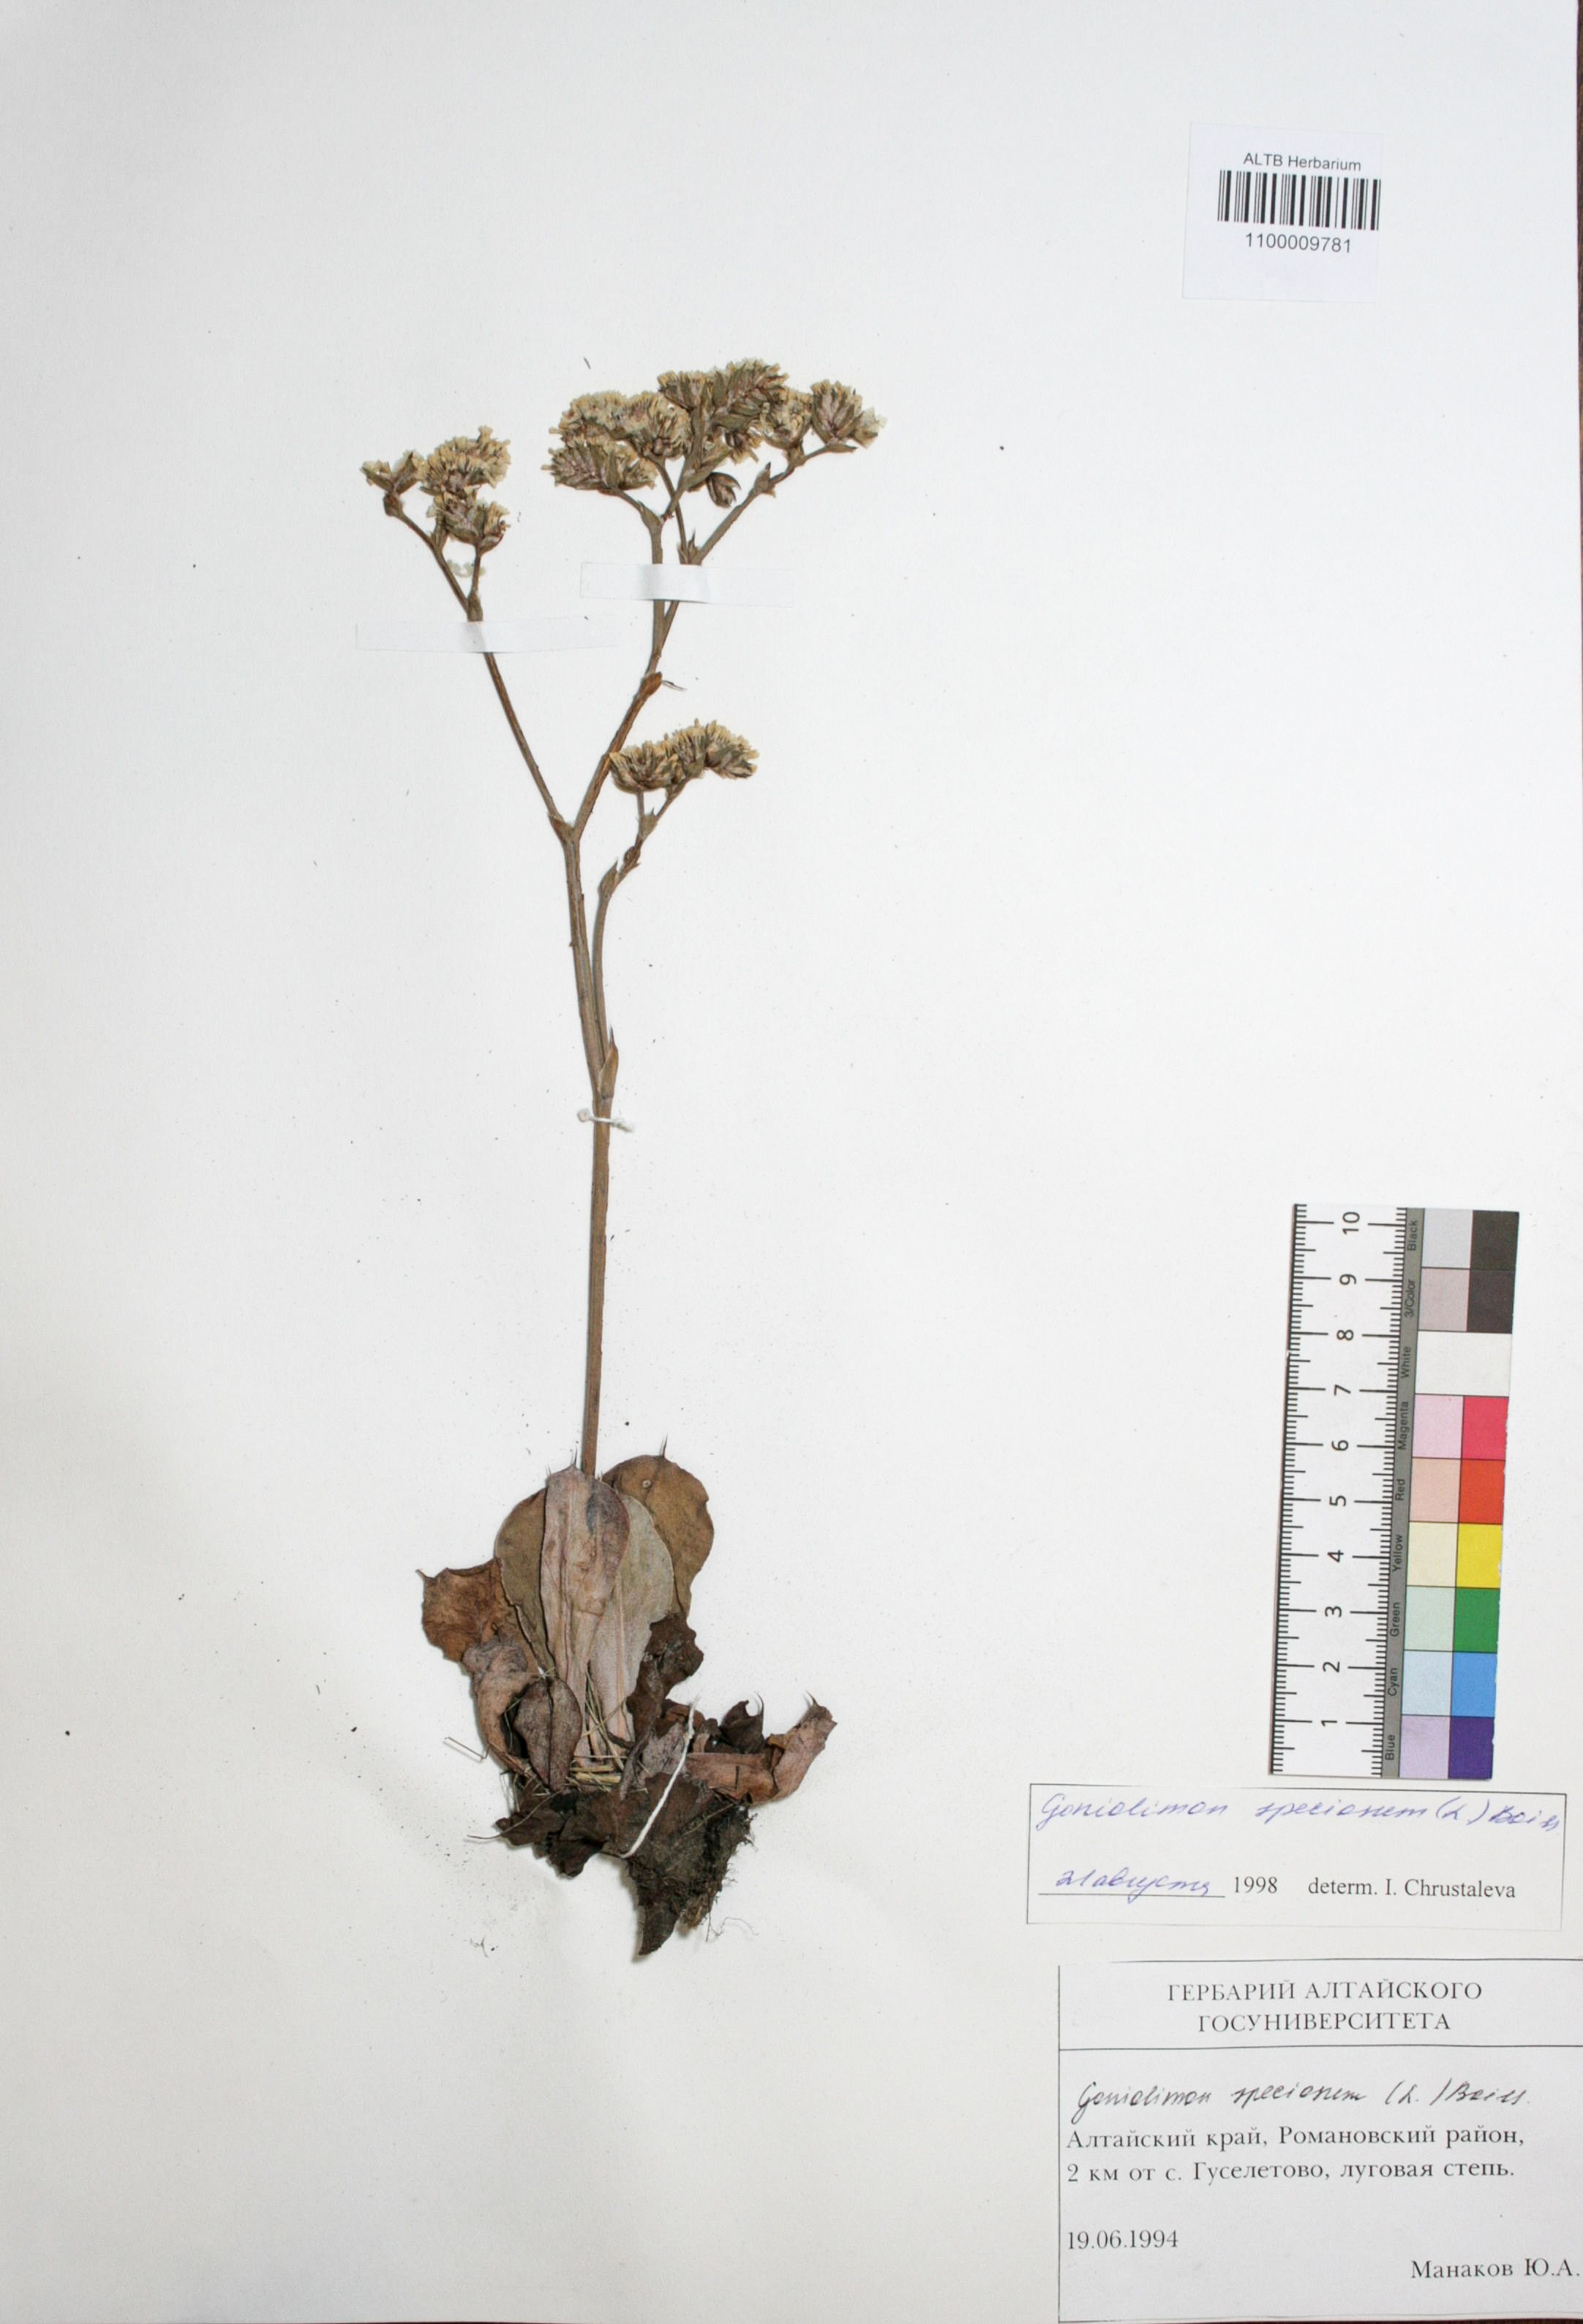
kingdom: Plantae
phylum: Tracheophyta
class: Magnoliopsida
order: Caryophyllales
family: Plumbaginaceae
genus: Goniolimon
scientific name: Goniolimon speciosum
